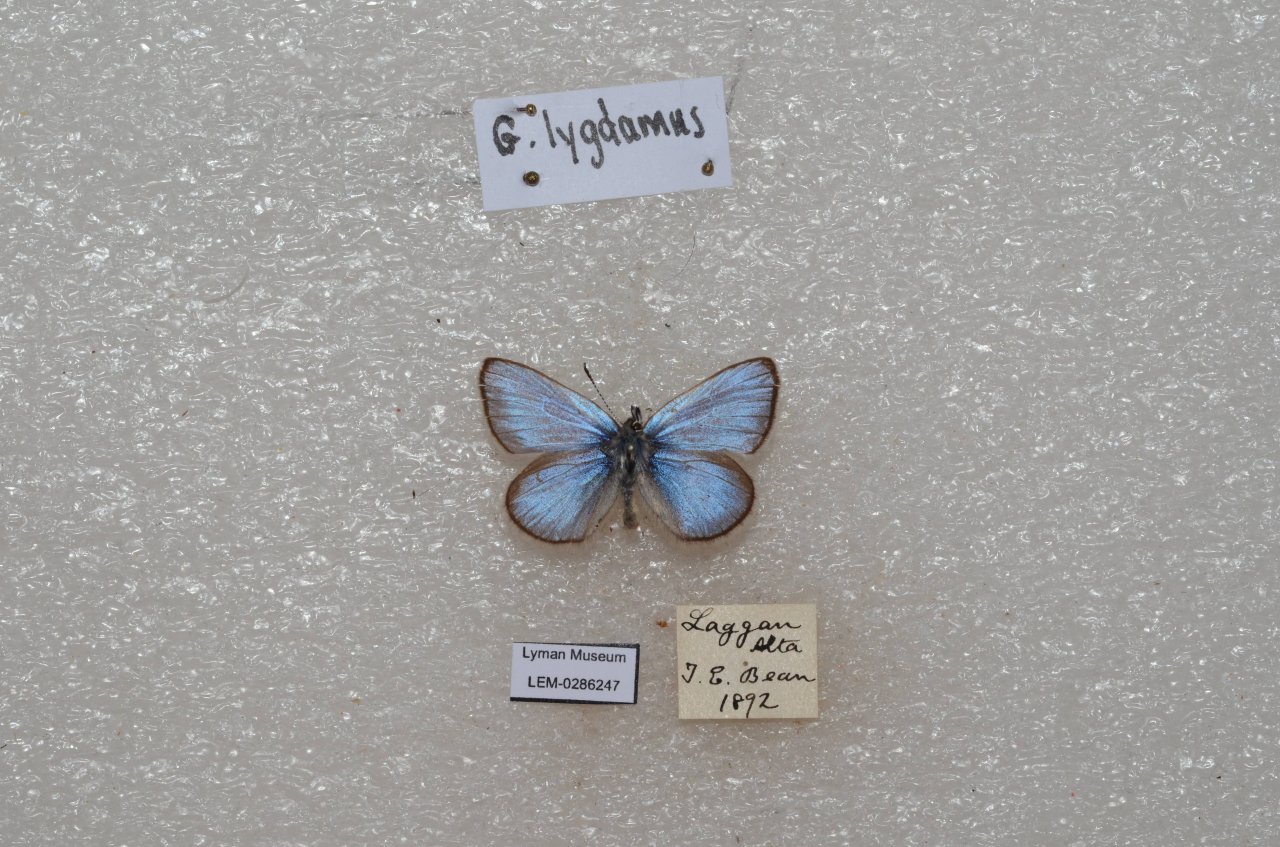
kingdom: Animalia
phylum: Arthropoda
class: Insecta
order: Lepidoptera
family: Lycaenidae
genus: Glaucopsyche
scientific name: Glaucopsyche lygdamus
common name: Silvery Blue
